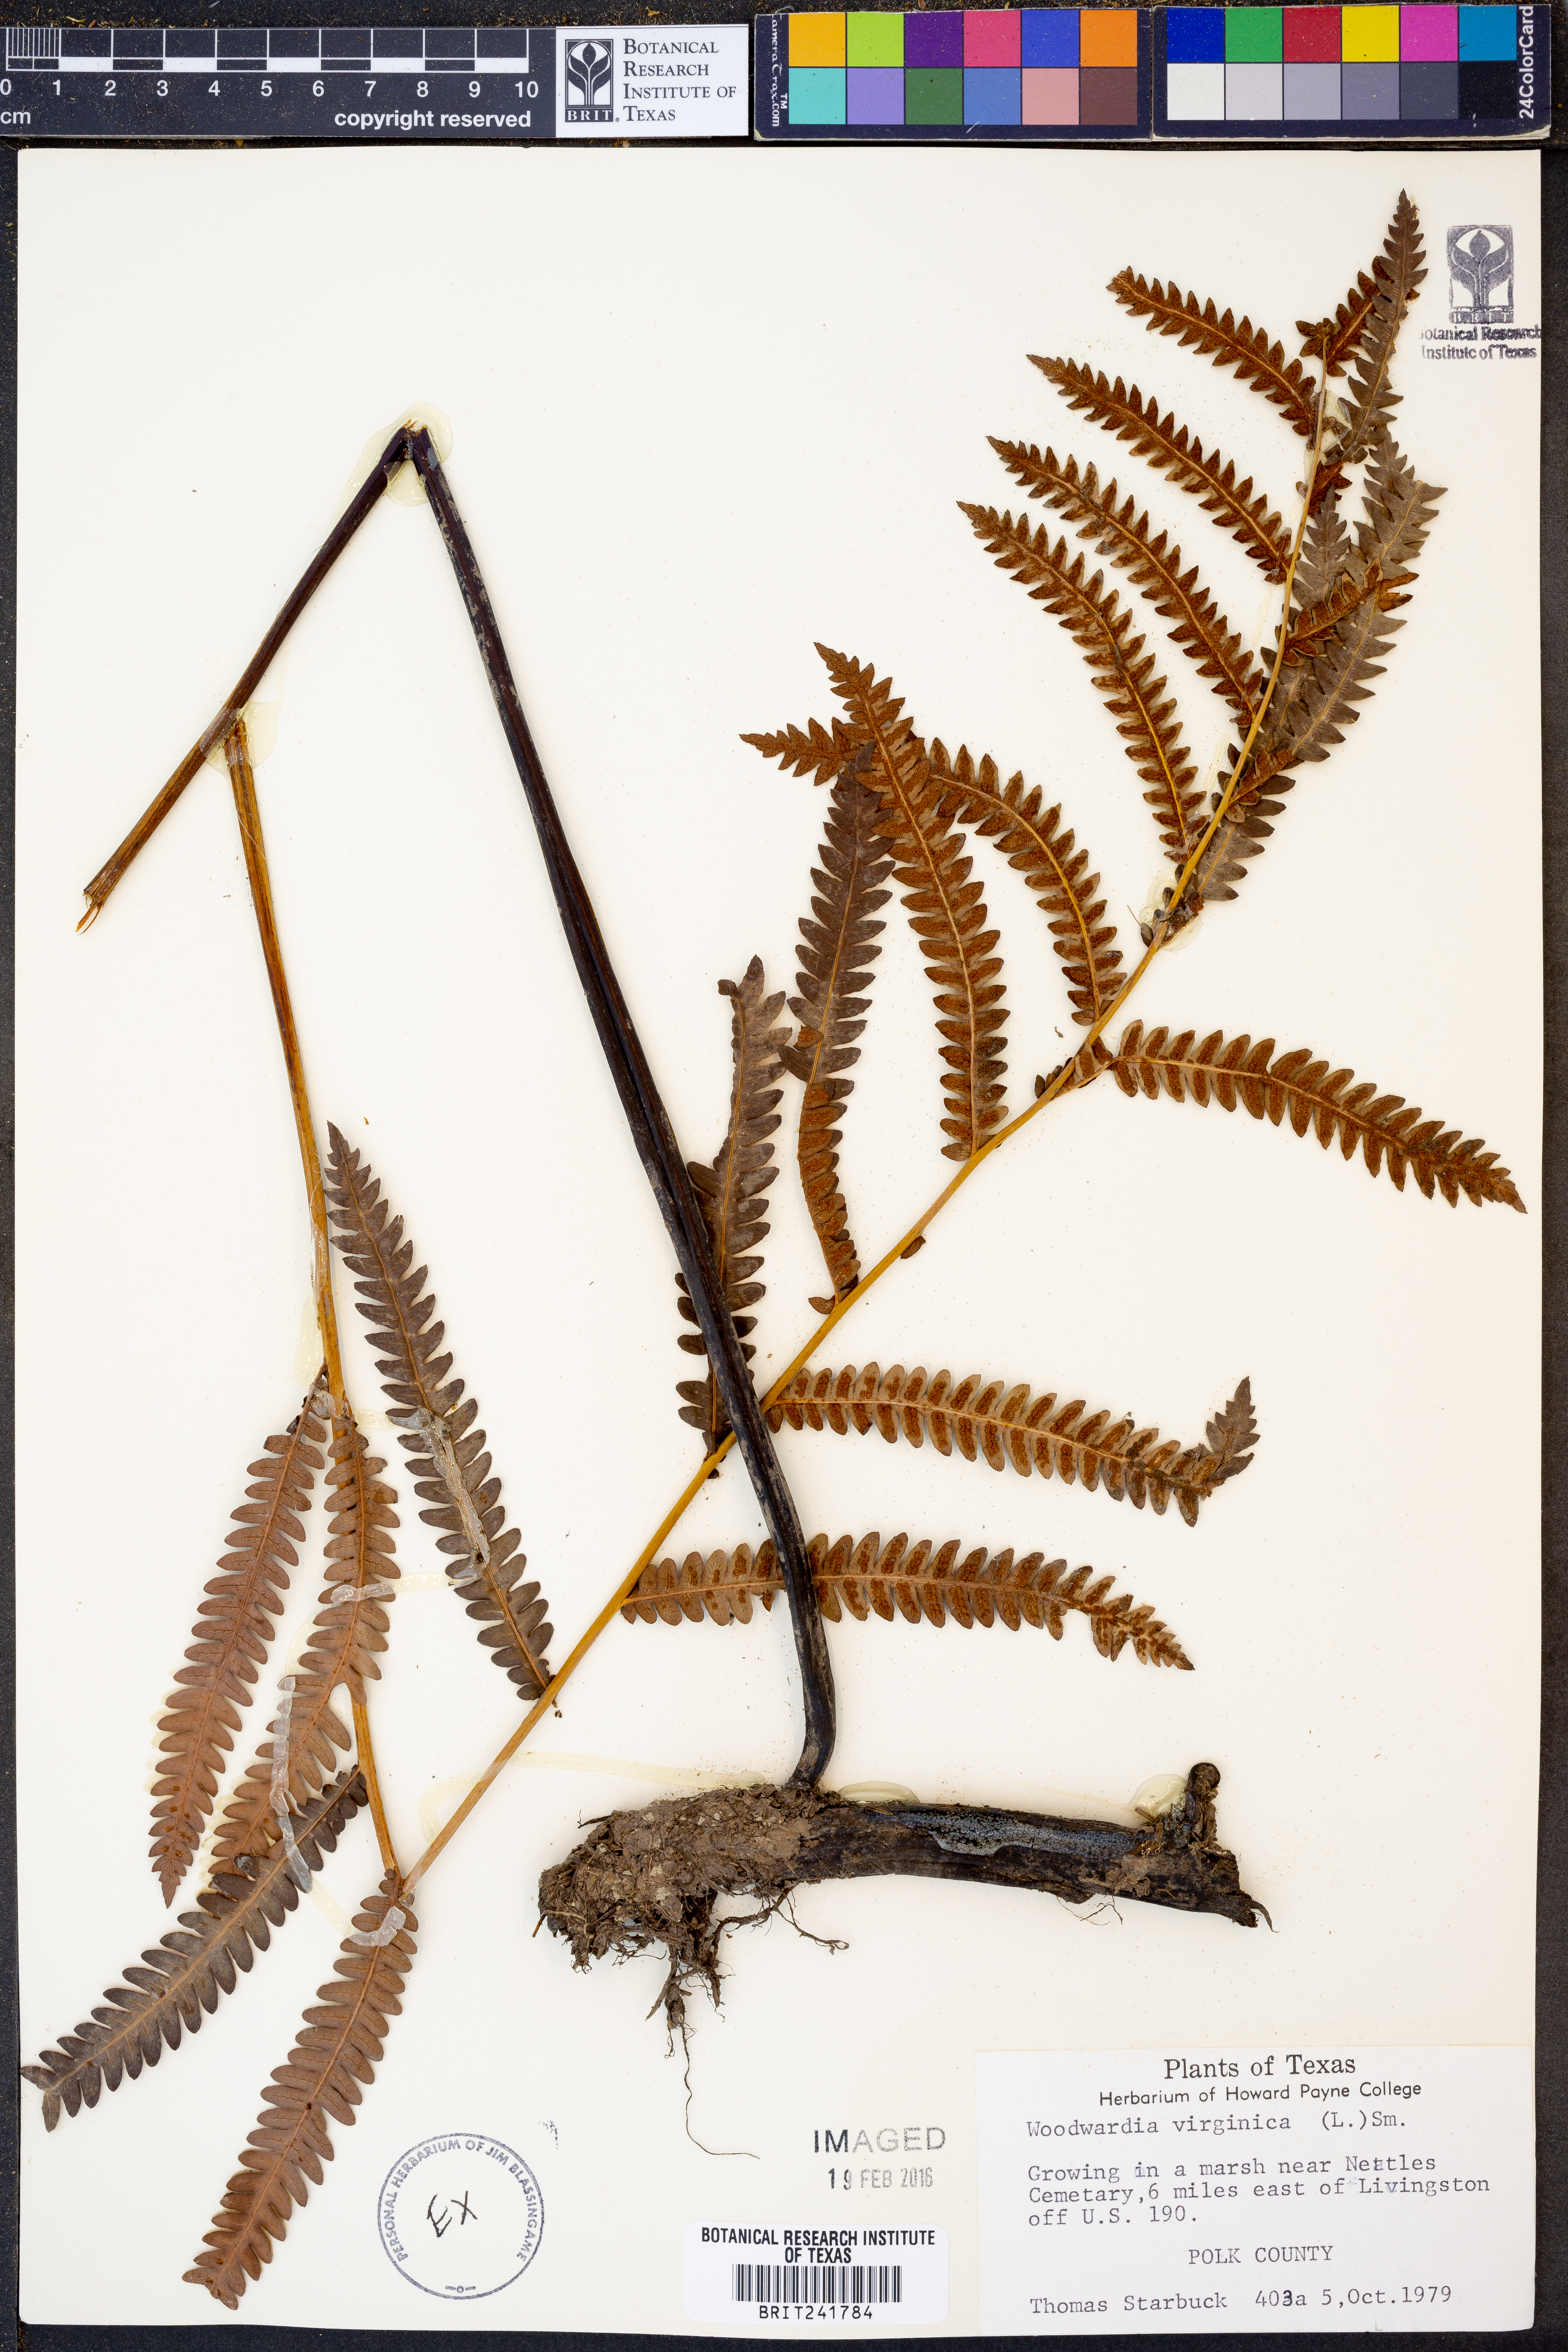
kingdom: Plantae
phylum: Tracheophyta
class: Polypodiopsida
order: Polypodiales
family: Blechnaceae
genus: Anchistea
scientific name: Anchistea virginica
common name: Virginia chain fern
